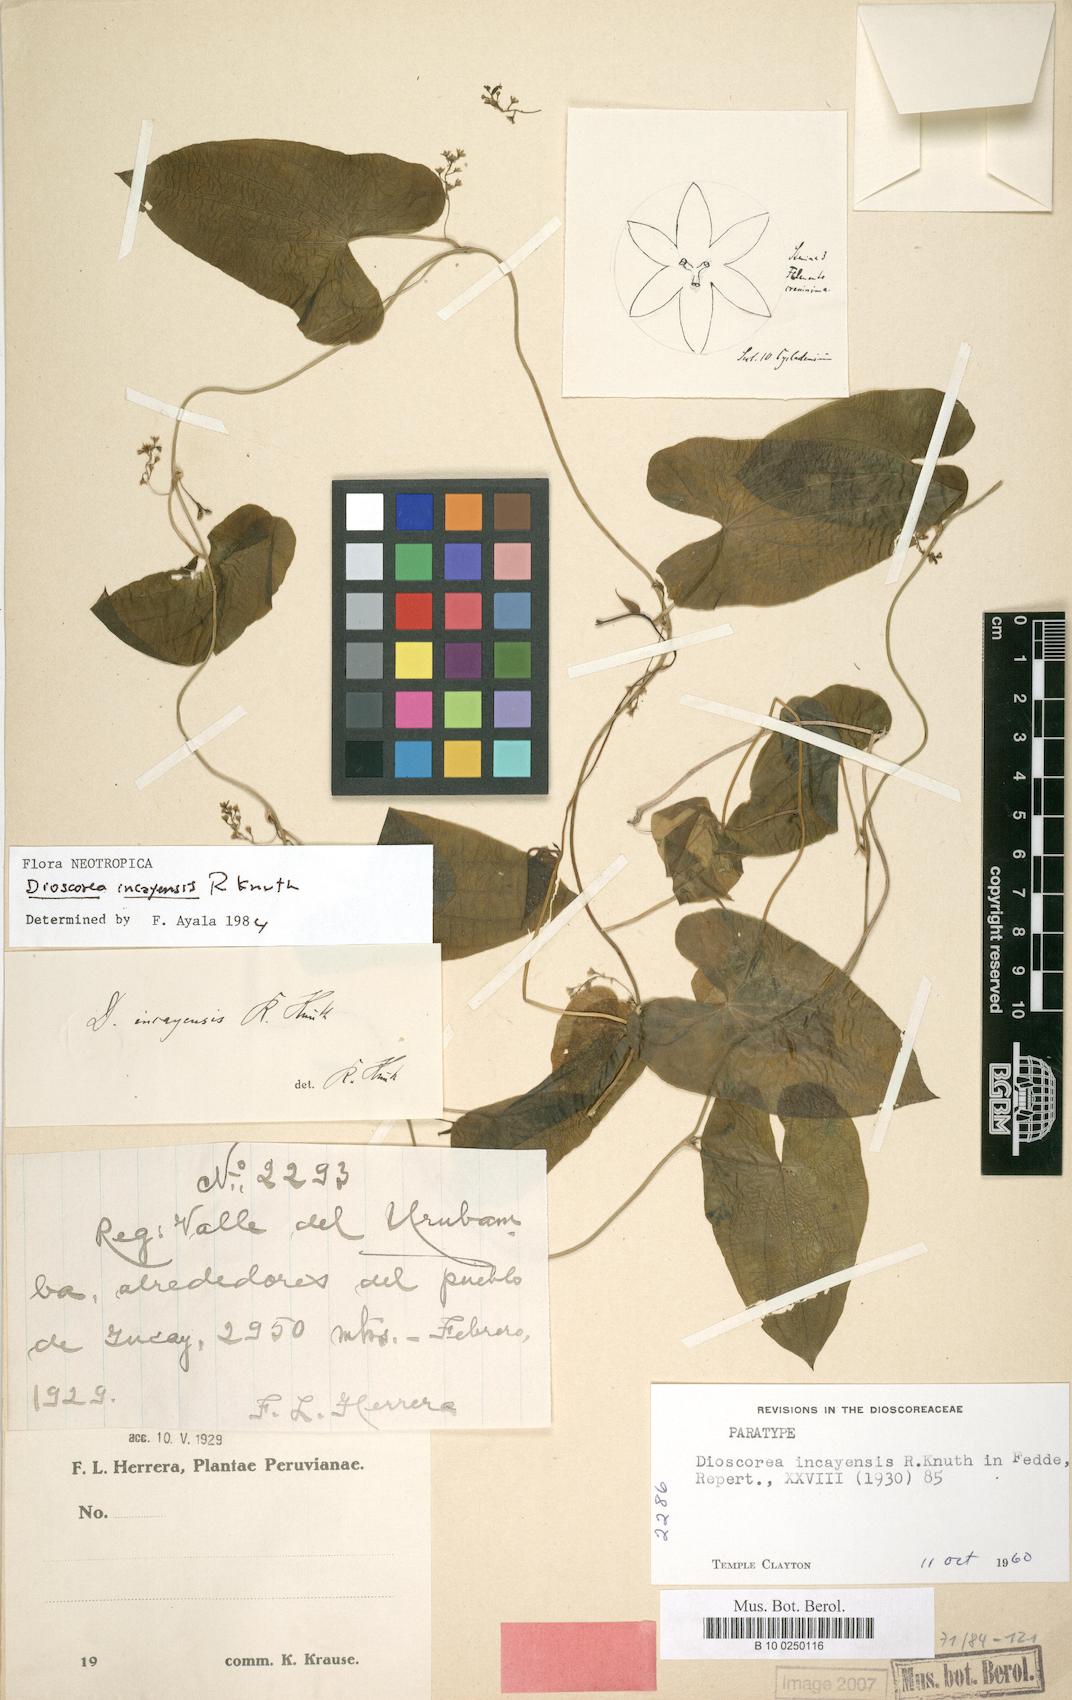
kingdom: Plantae
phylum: Tracheophyta
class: Liliopsida
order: Dioscoreales
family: Dioscoreaceae
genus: Dioscorea
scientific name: Dioscorea incayensis
